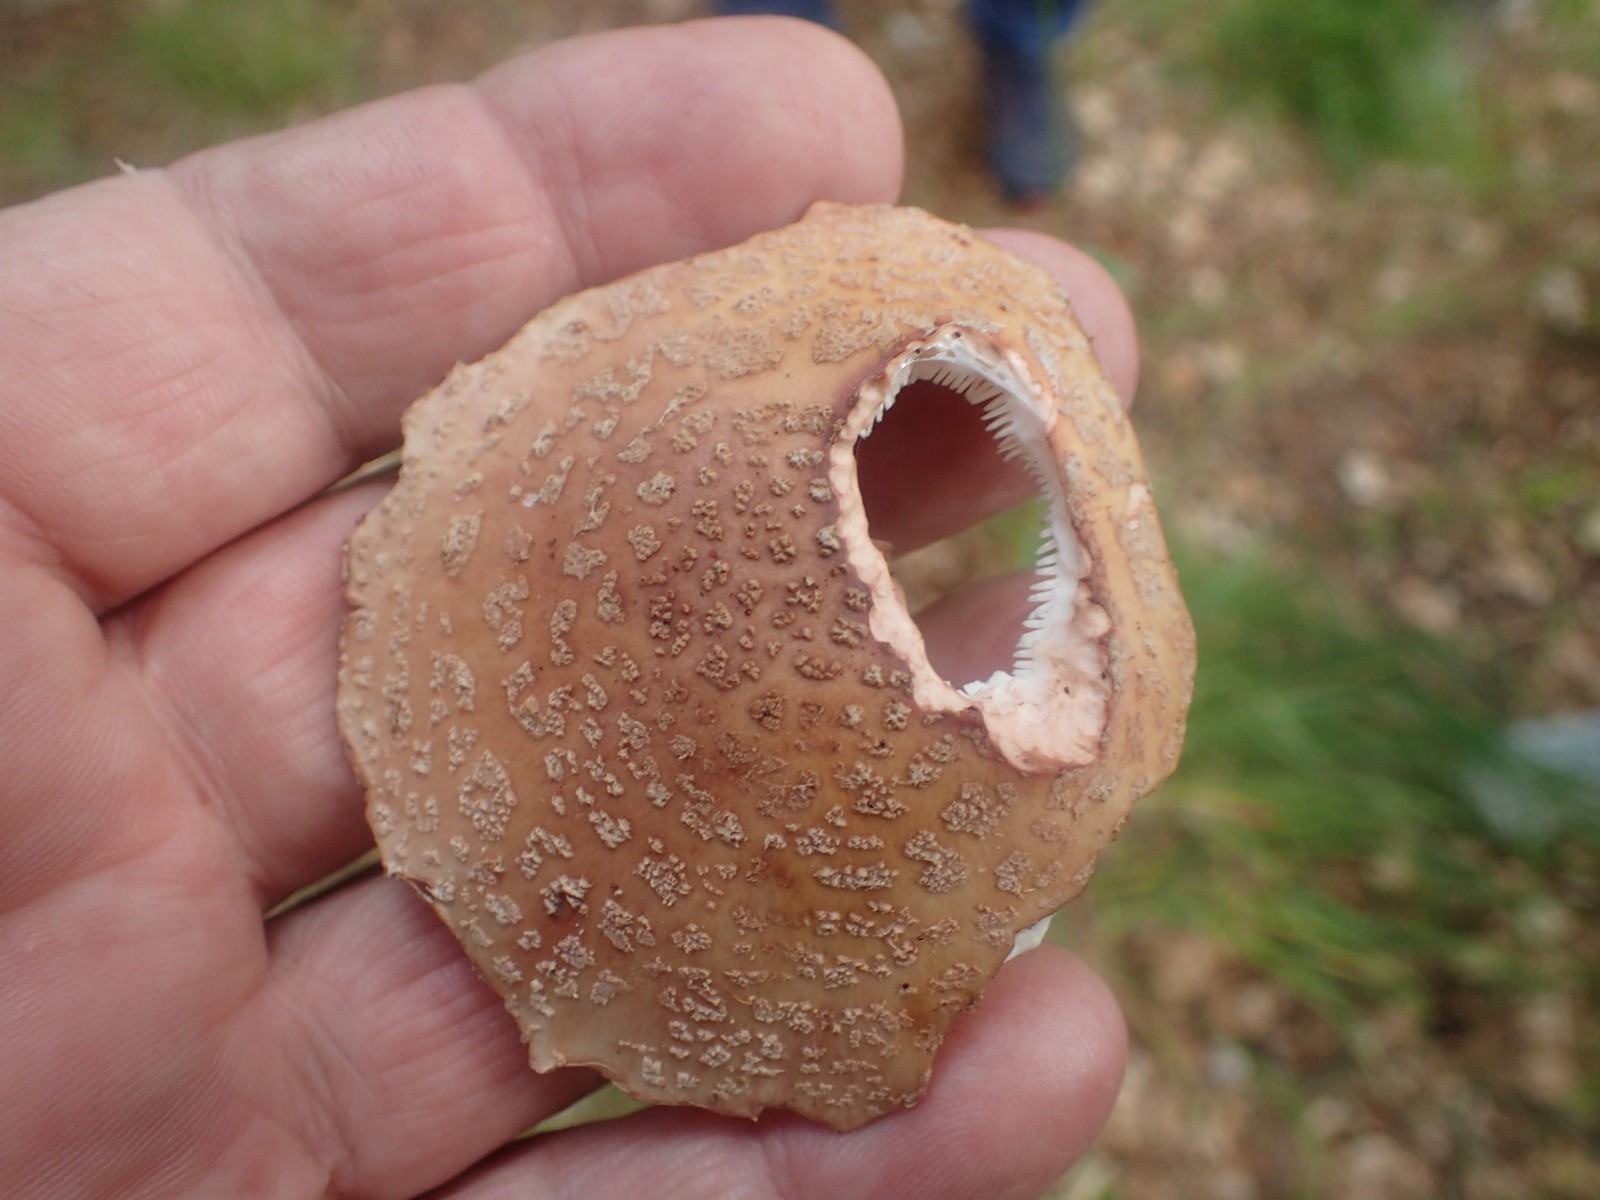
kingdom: Fungi
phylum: Basidiomycota
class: Agaricomycetes
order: Agaricales
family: Amanitaceae
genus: Amanita
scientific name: Amanita rubescens
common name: rødmende fluesvamp
